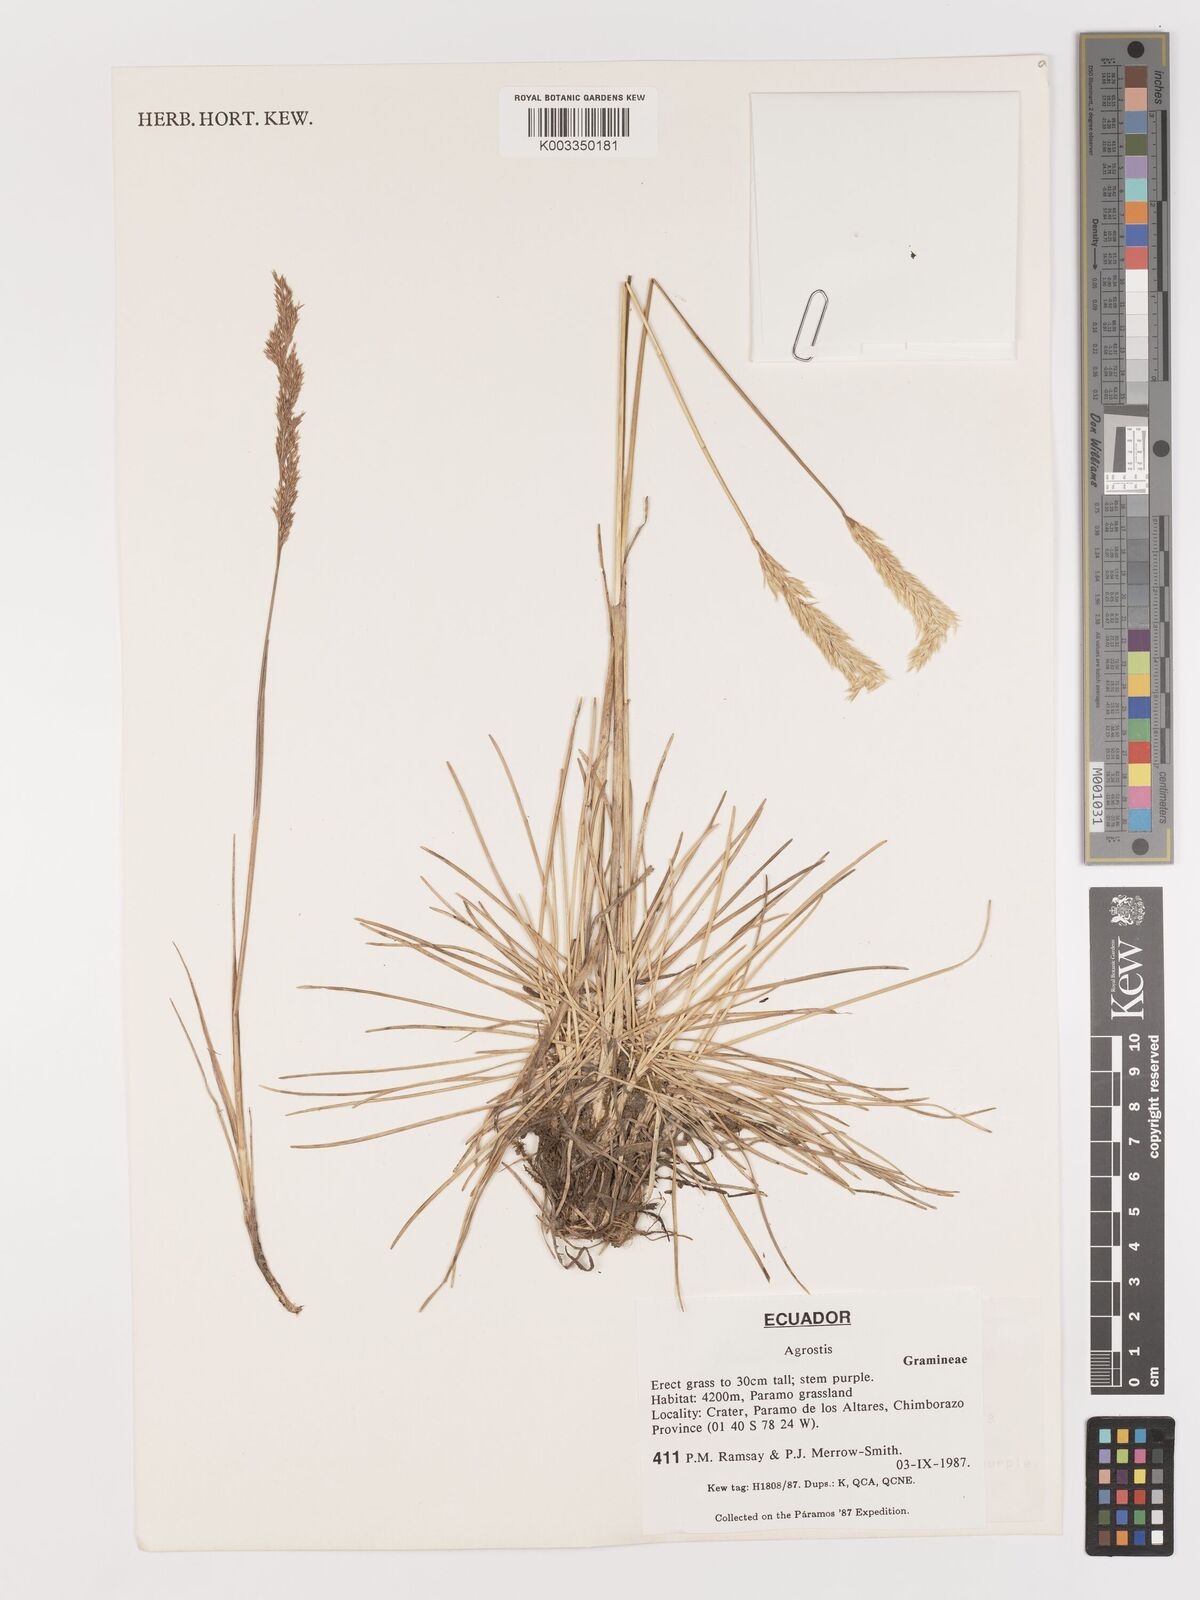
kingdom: Plantae
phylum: Tracheophyta
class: Liliopsida
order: Poales
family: Poaceae
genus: Agrostis
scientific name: Agrostis
